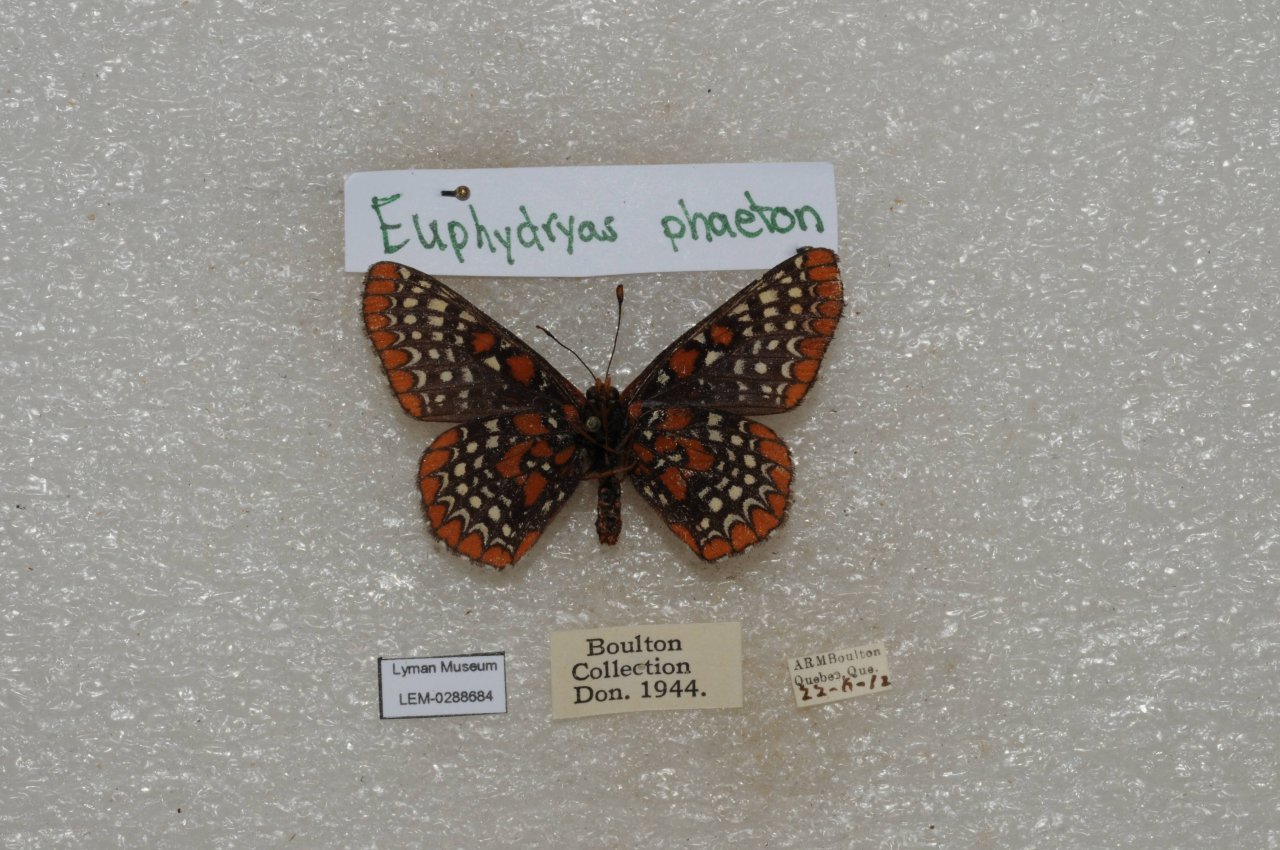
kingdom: Animalia
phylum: Arthropoda
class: Insecta
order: Lepidoptera
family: Nymphalidae
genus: Euphydryas
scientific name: Euphydryas phaeton
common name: Baltimore Checkerspot
